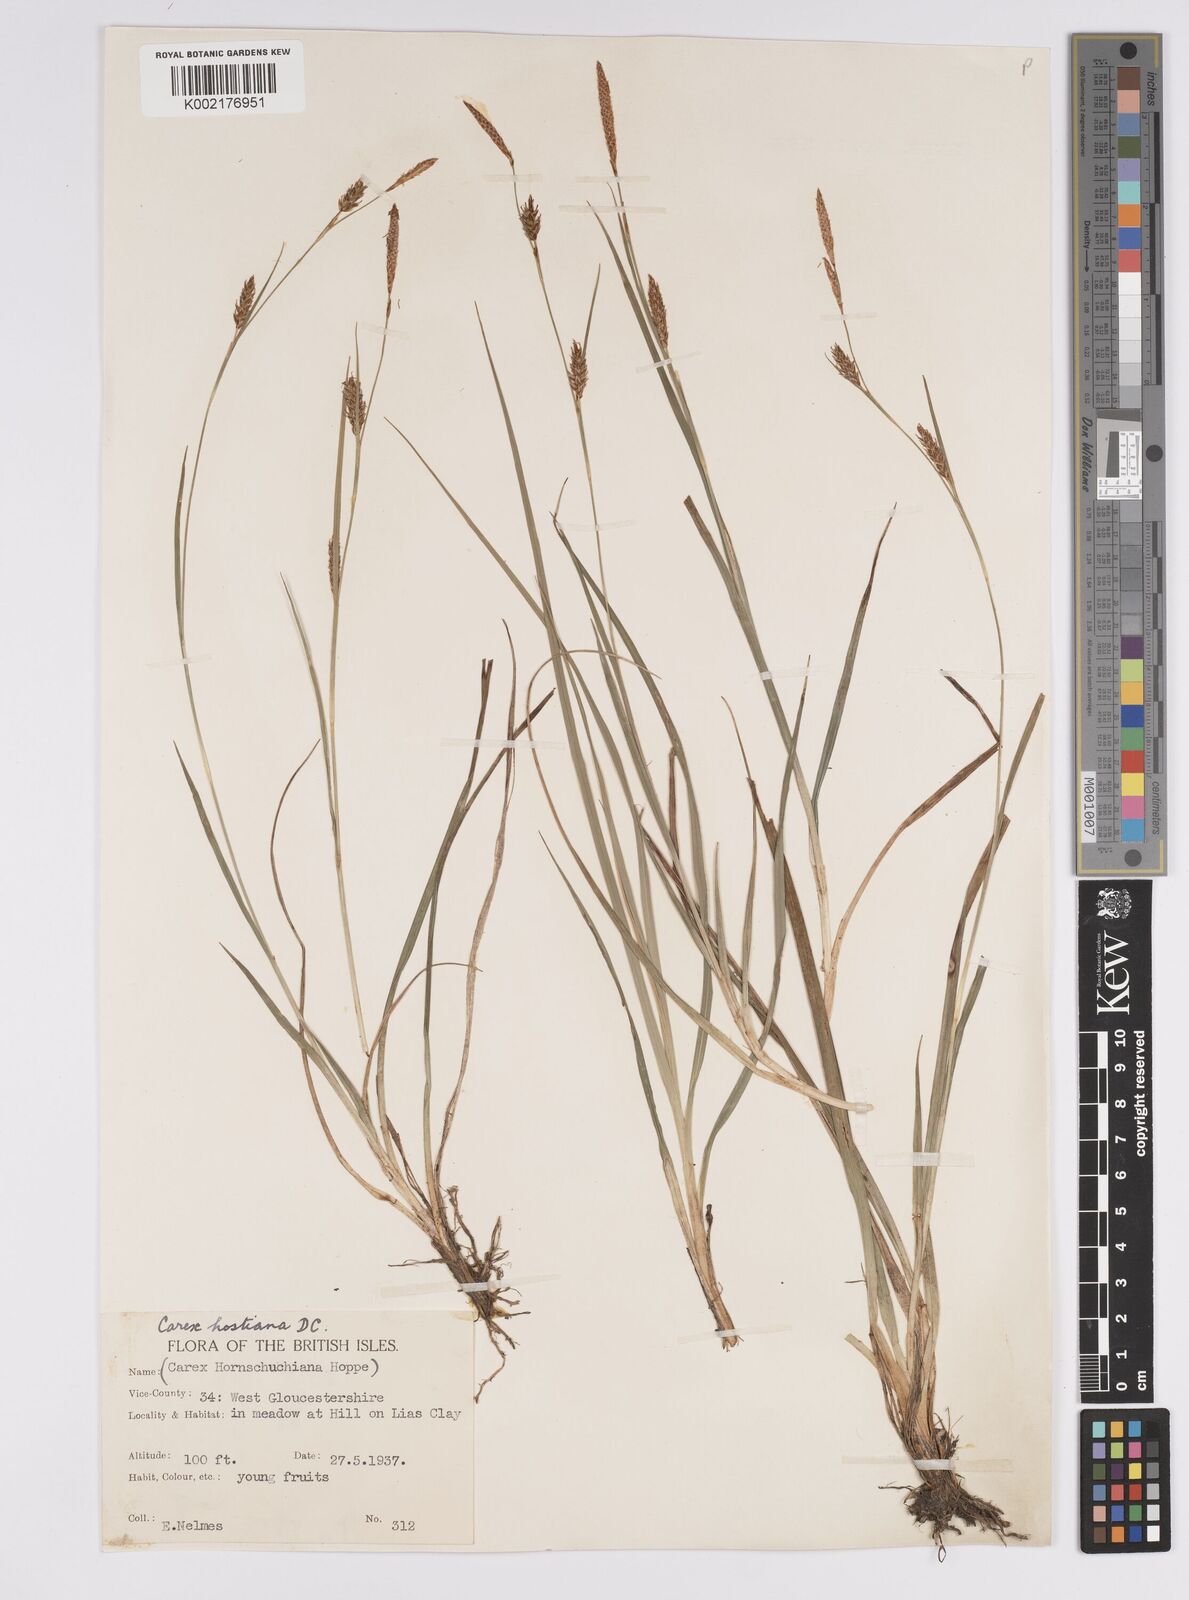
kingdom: Plantae
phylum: Tracheophyta
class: Liliopsida
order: Poales
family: Cyperaceae
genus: Carex
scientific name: Carex hostiana
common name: Tawny sedge
